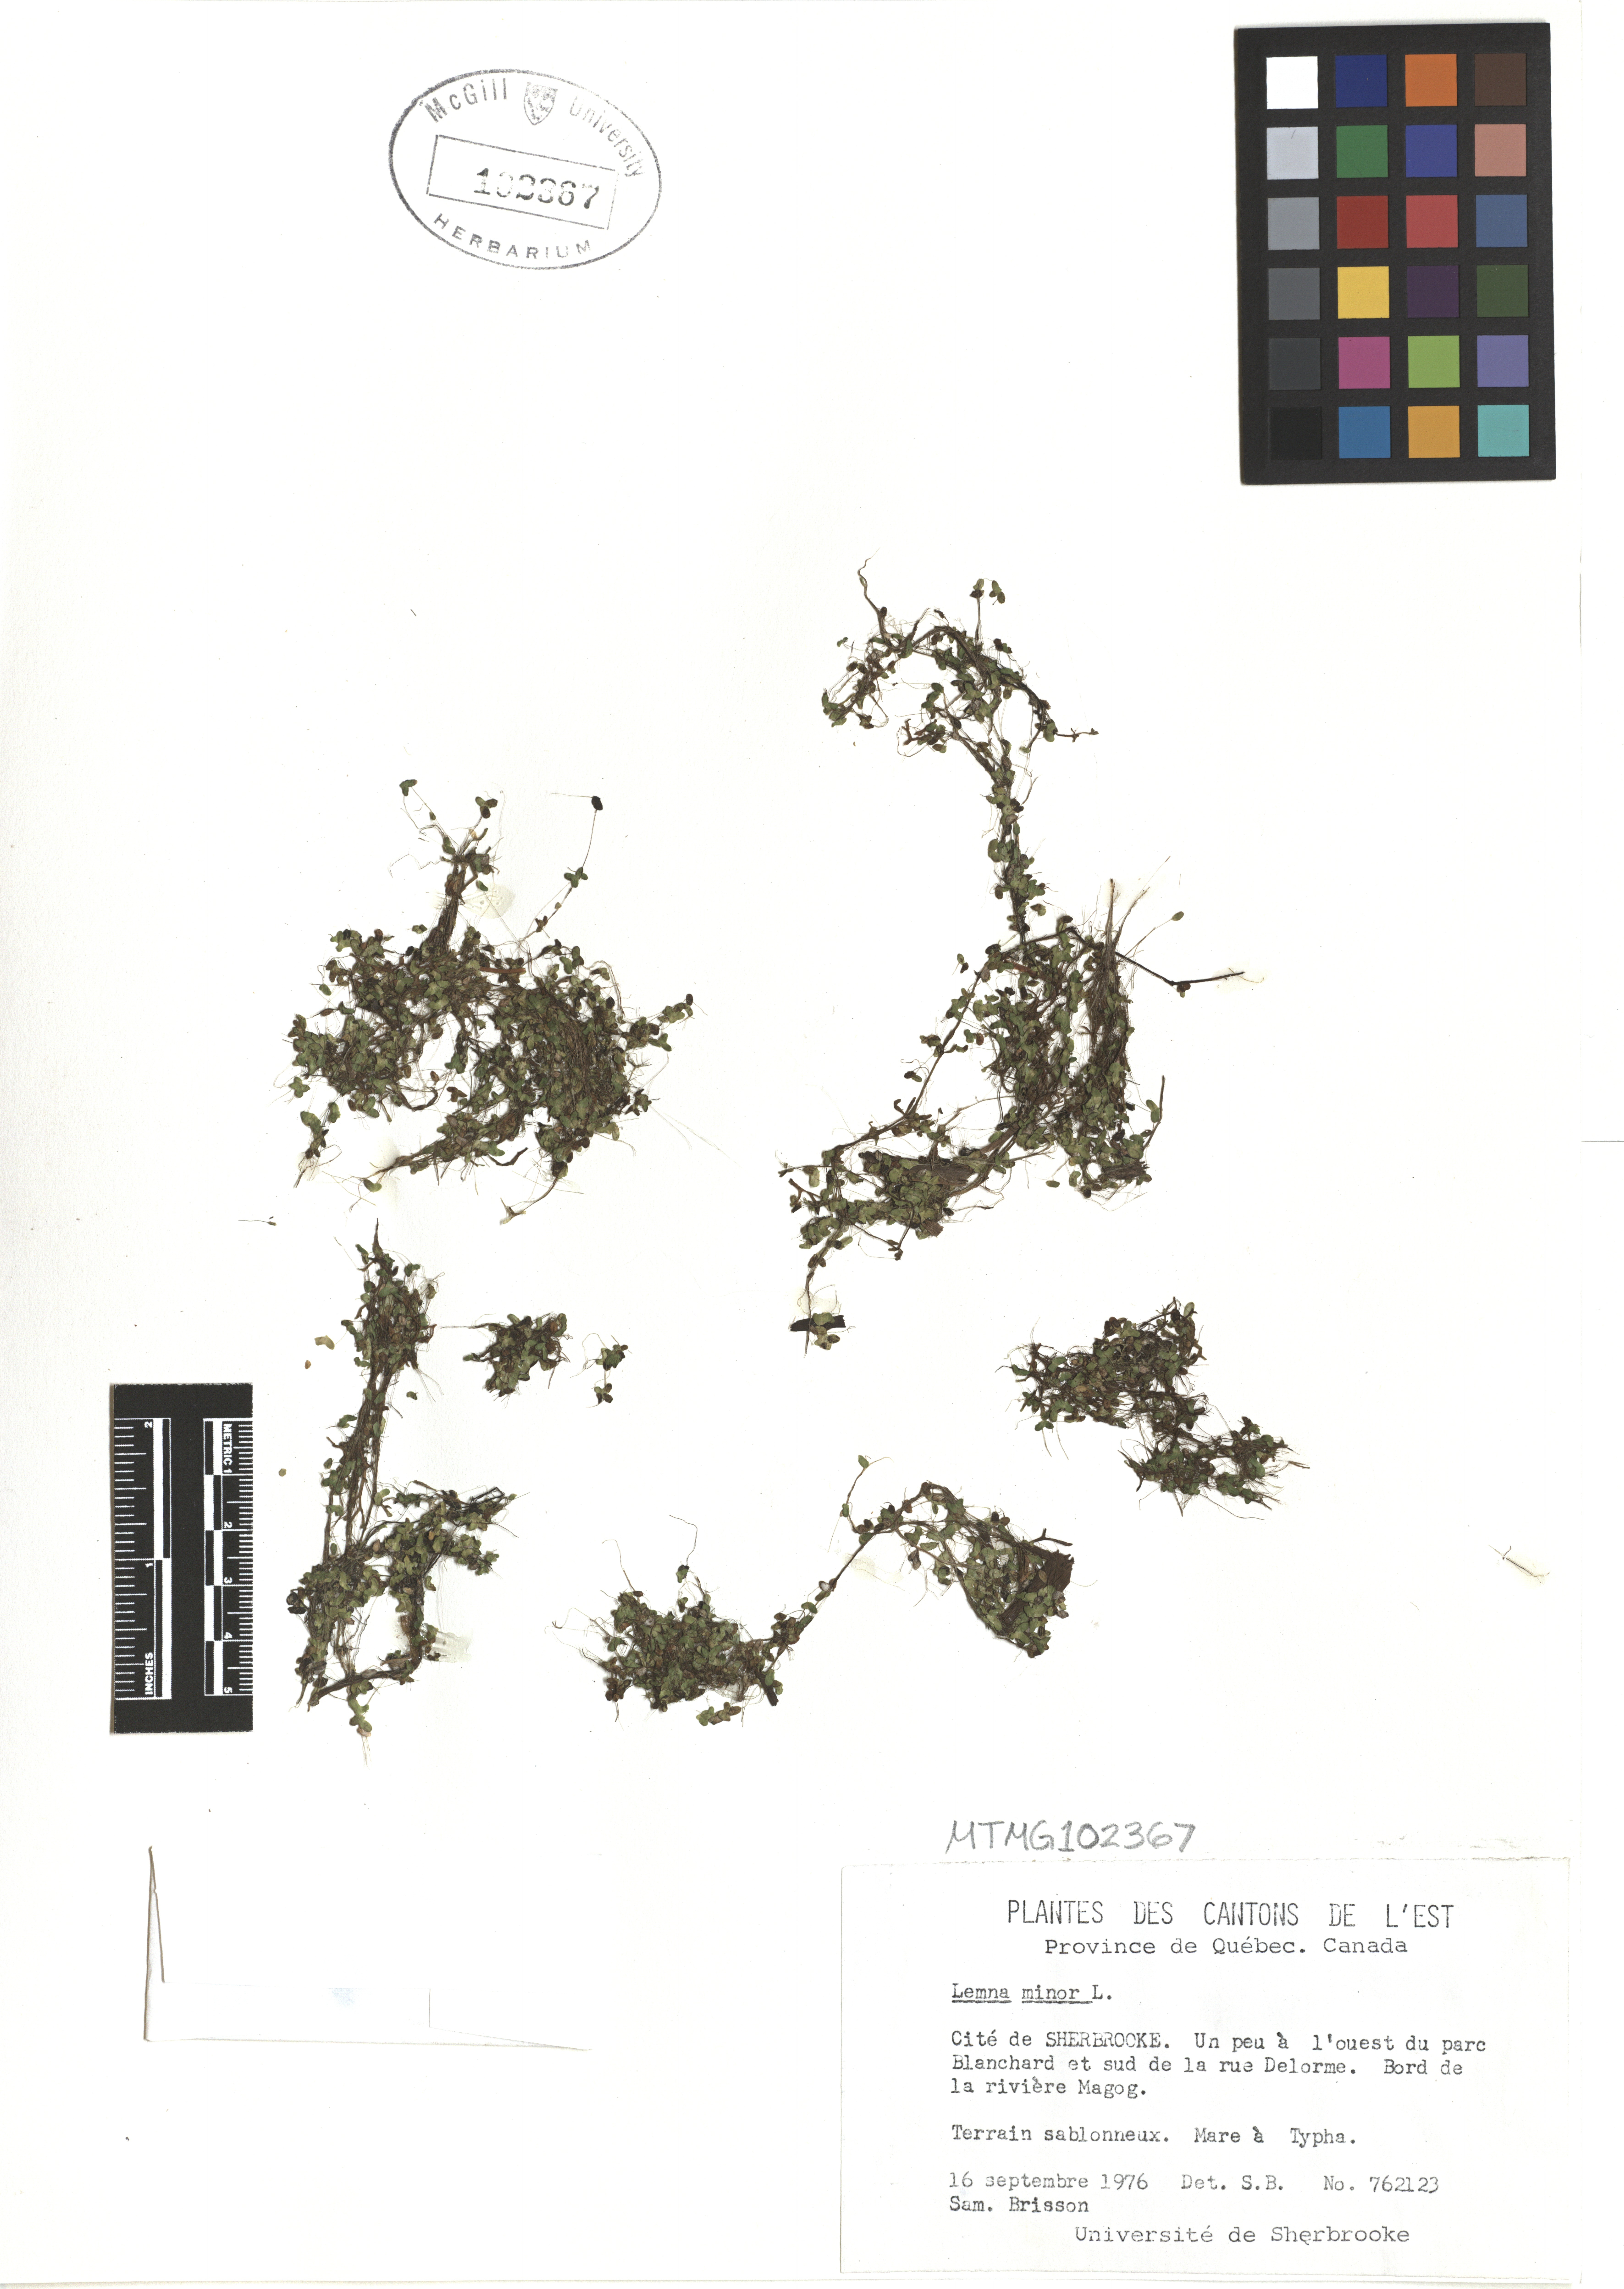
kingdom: Plantae
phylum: Tracheophyta
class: Liliopsida
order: Alismatales
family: Araceae
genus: Lemna
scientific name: Lemna minor
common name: Common duckweed
